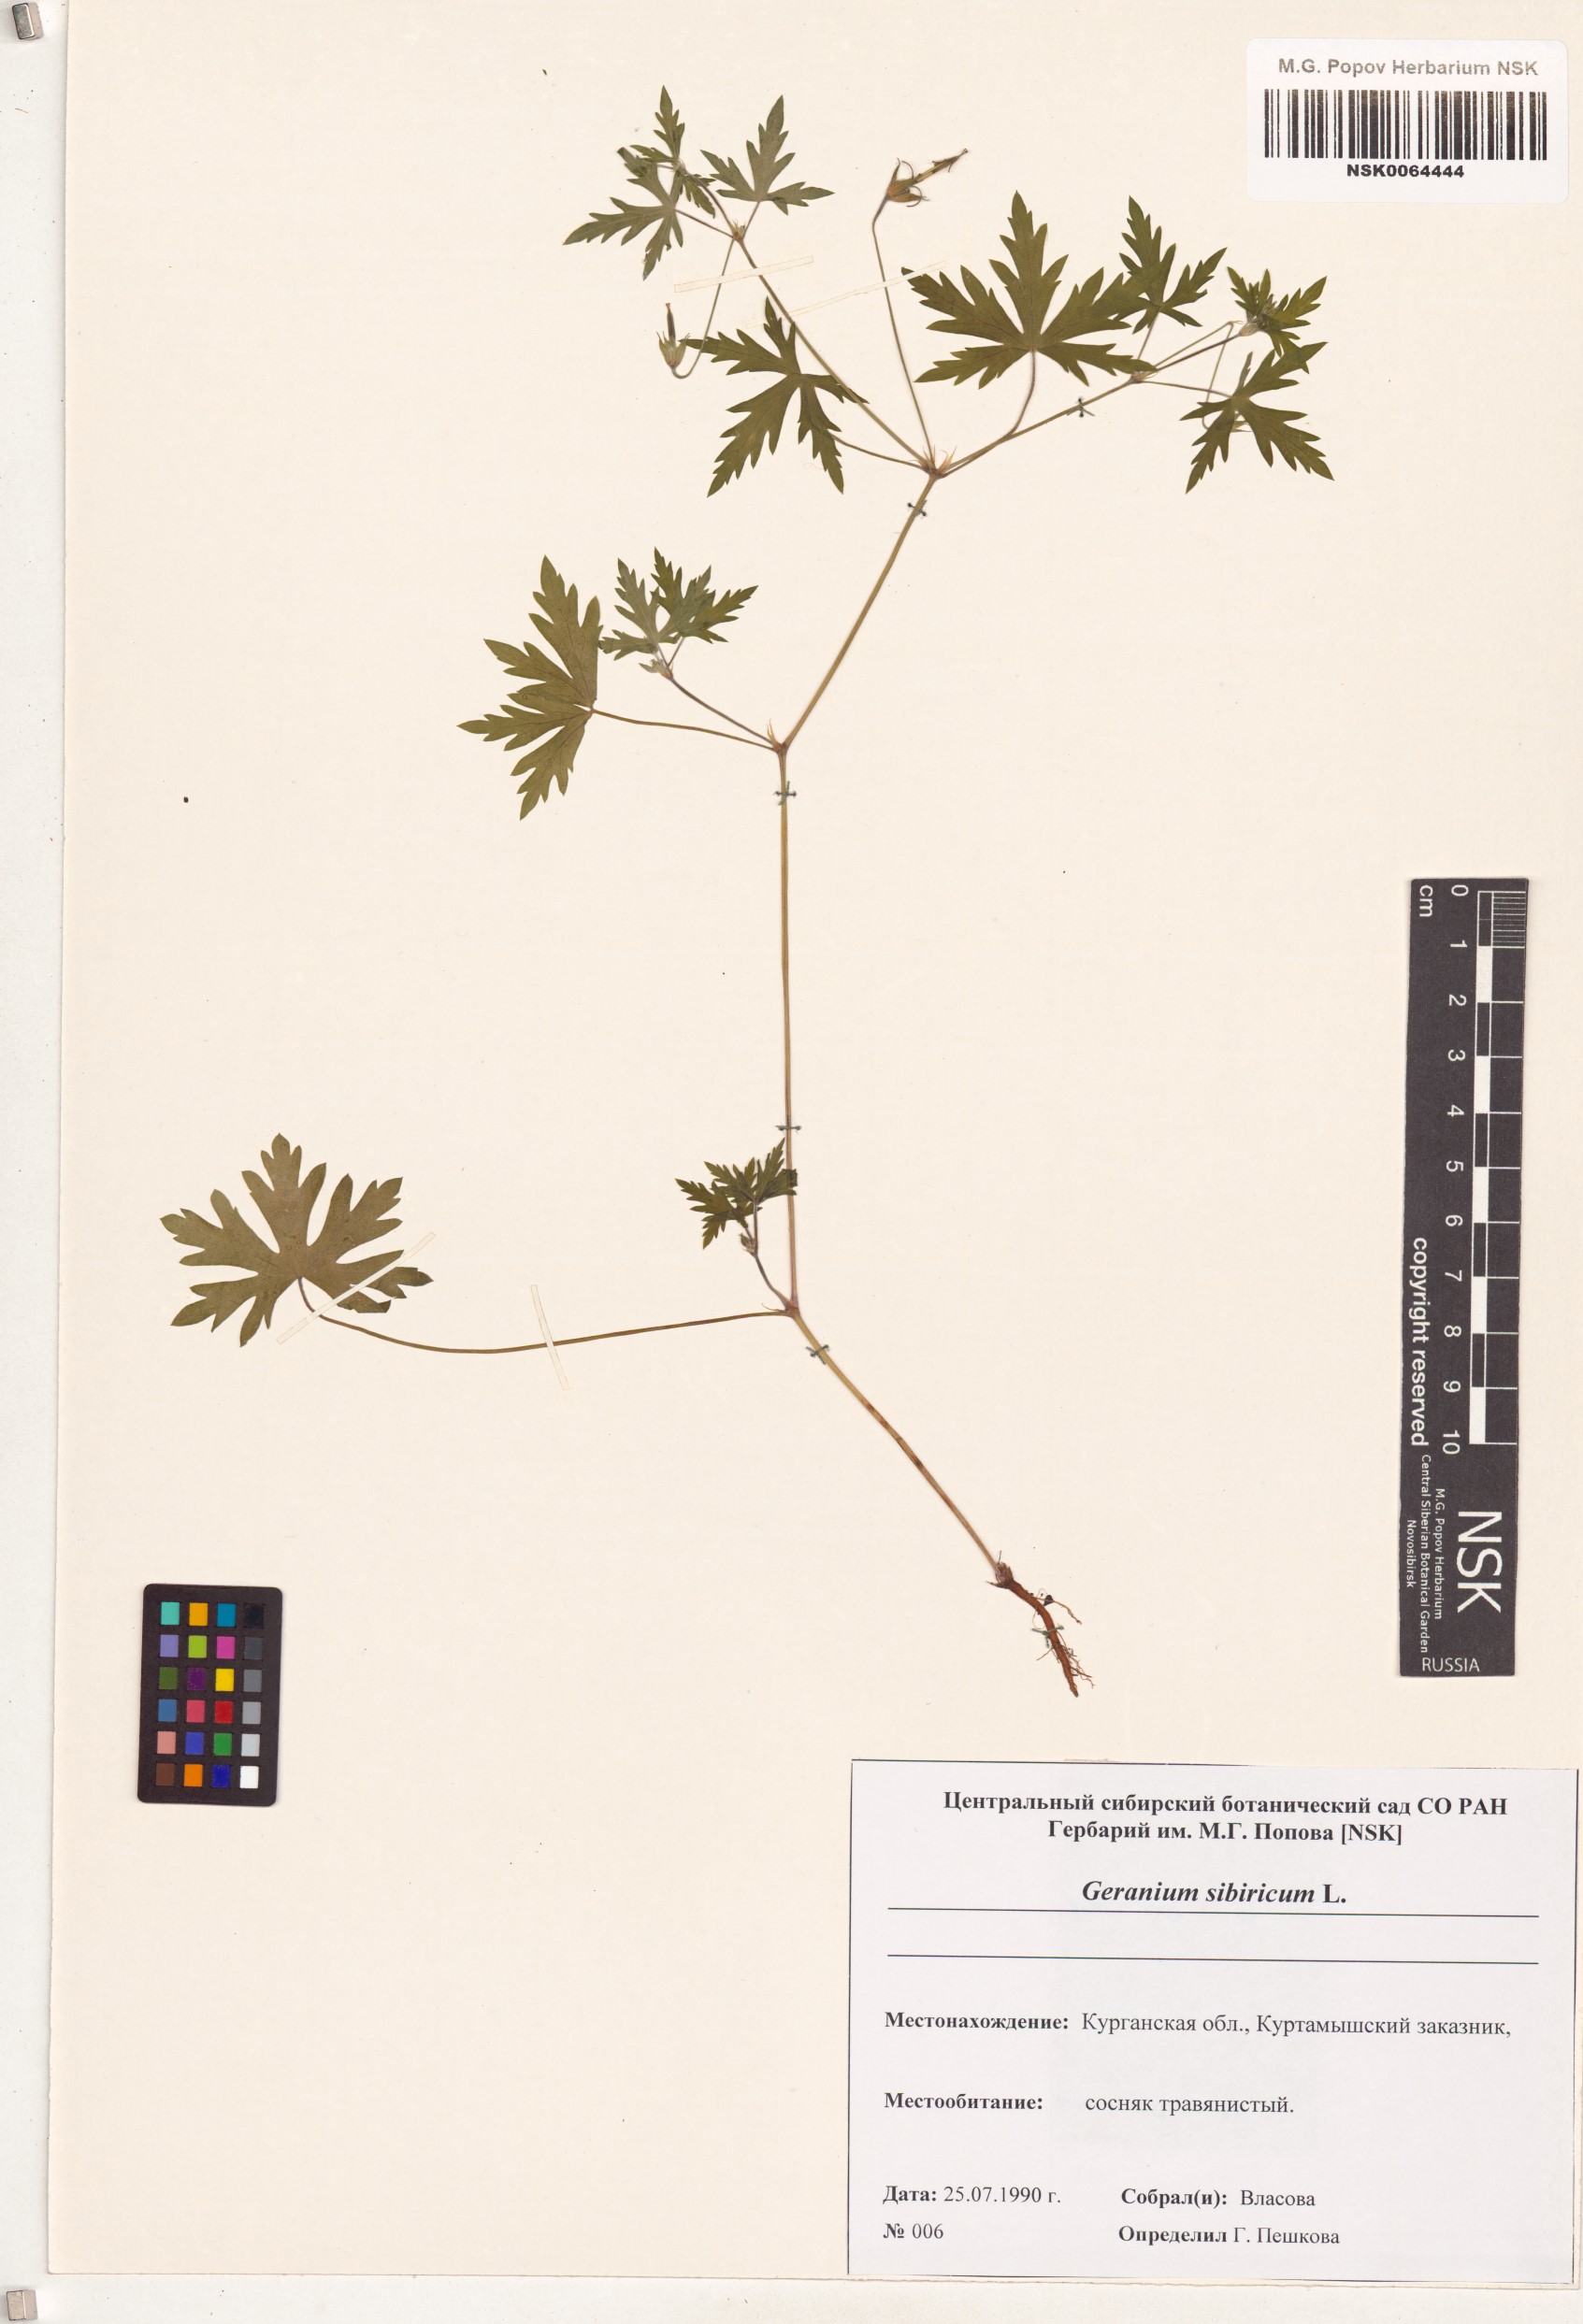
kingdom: Plantae
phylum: Tracheophyta
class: Magnoliopsida
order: Geraniales
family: Geraniaceae
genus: Geranium
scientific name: Geranium sibiricum
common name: Siberian crane's-bill
